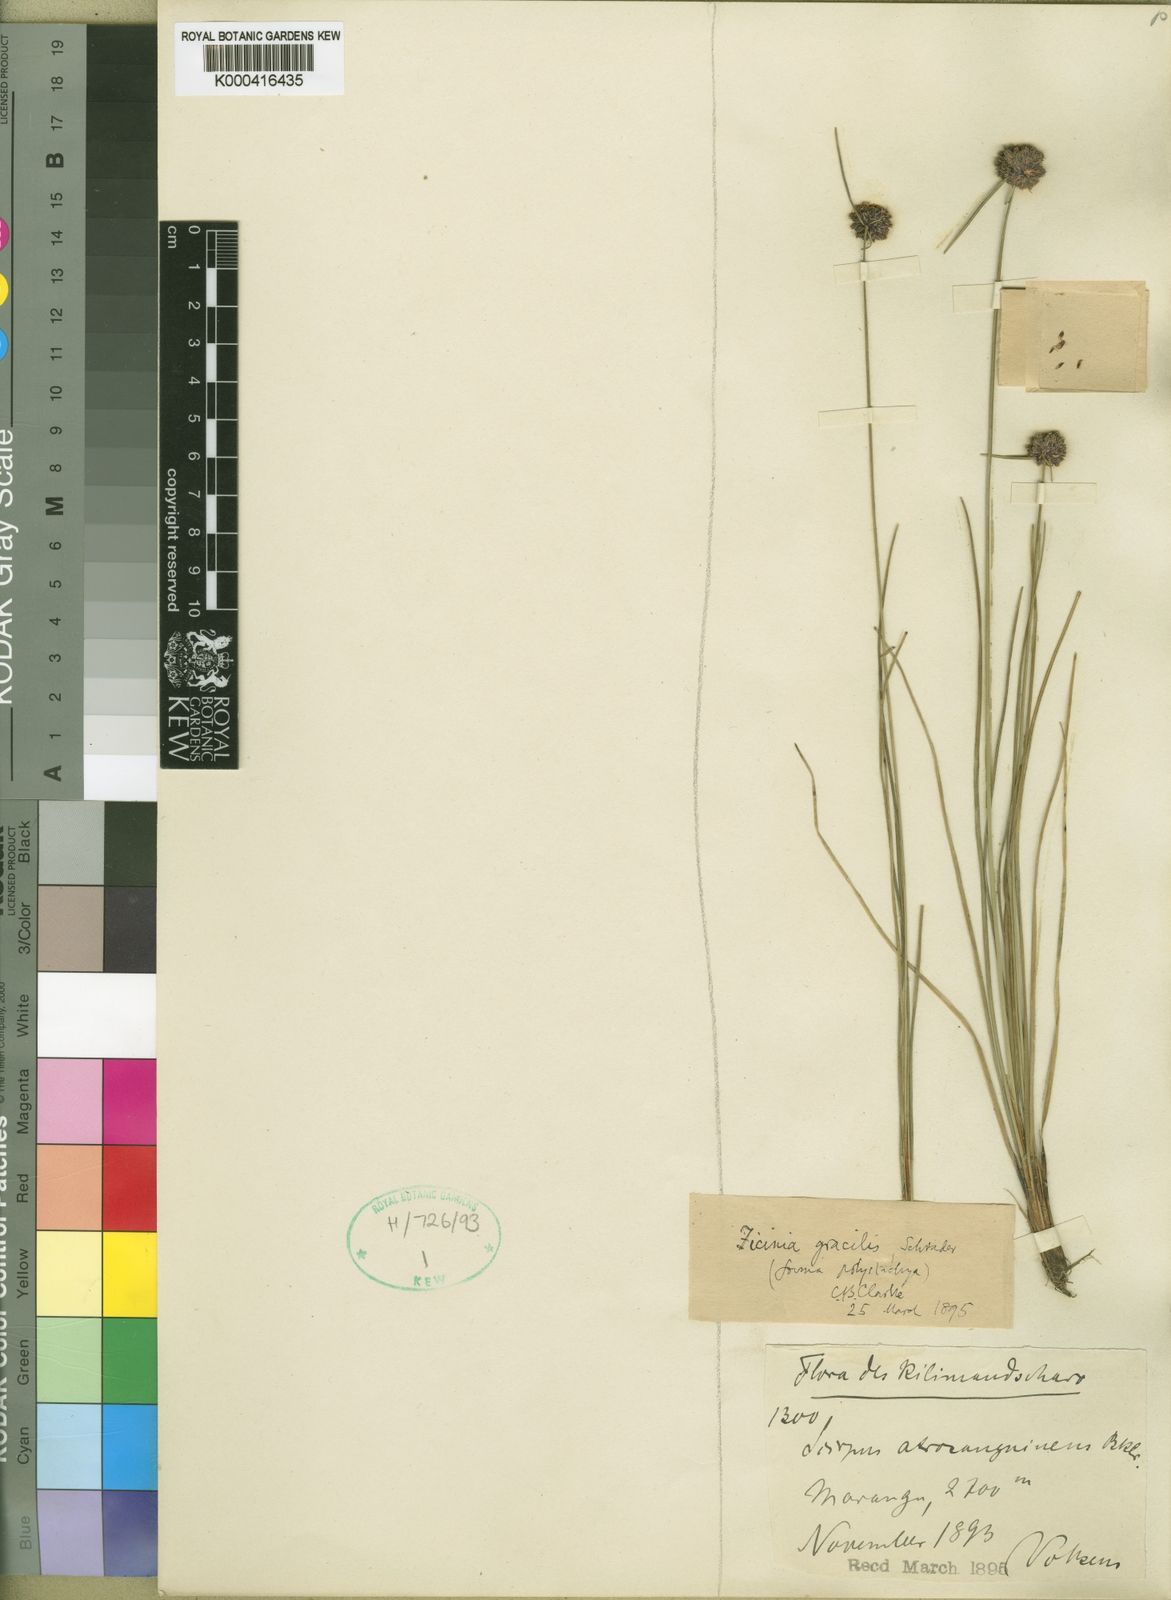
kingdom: Plantae
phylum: Tracheophyta
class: Liliopsida
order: Poales
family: Cyperaceae
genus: Ficinia
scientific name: Ficinia gracilis
